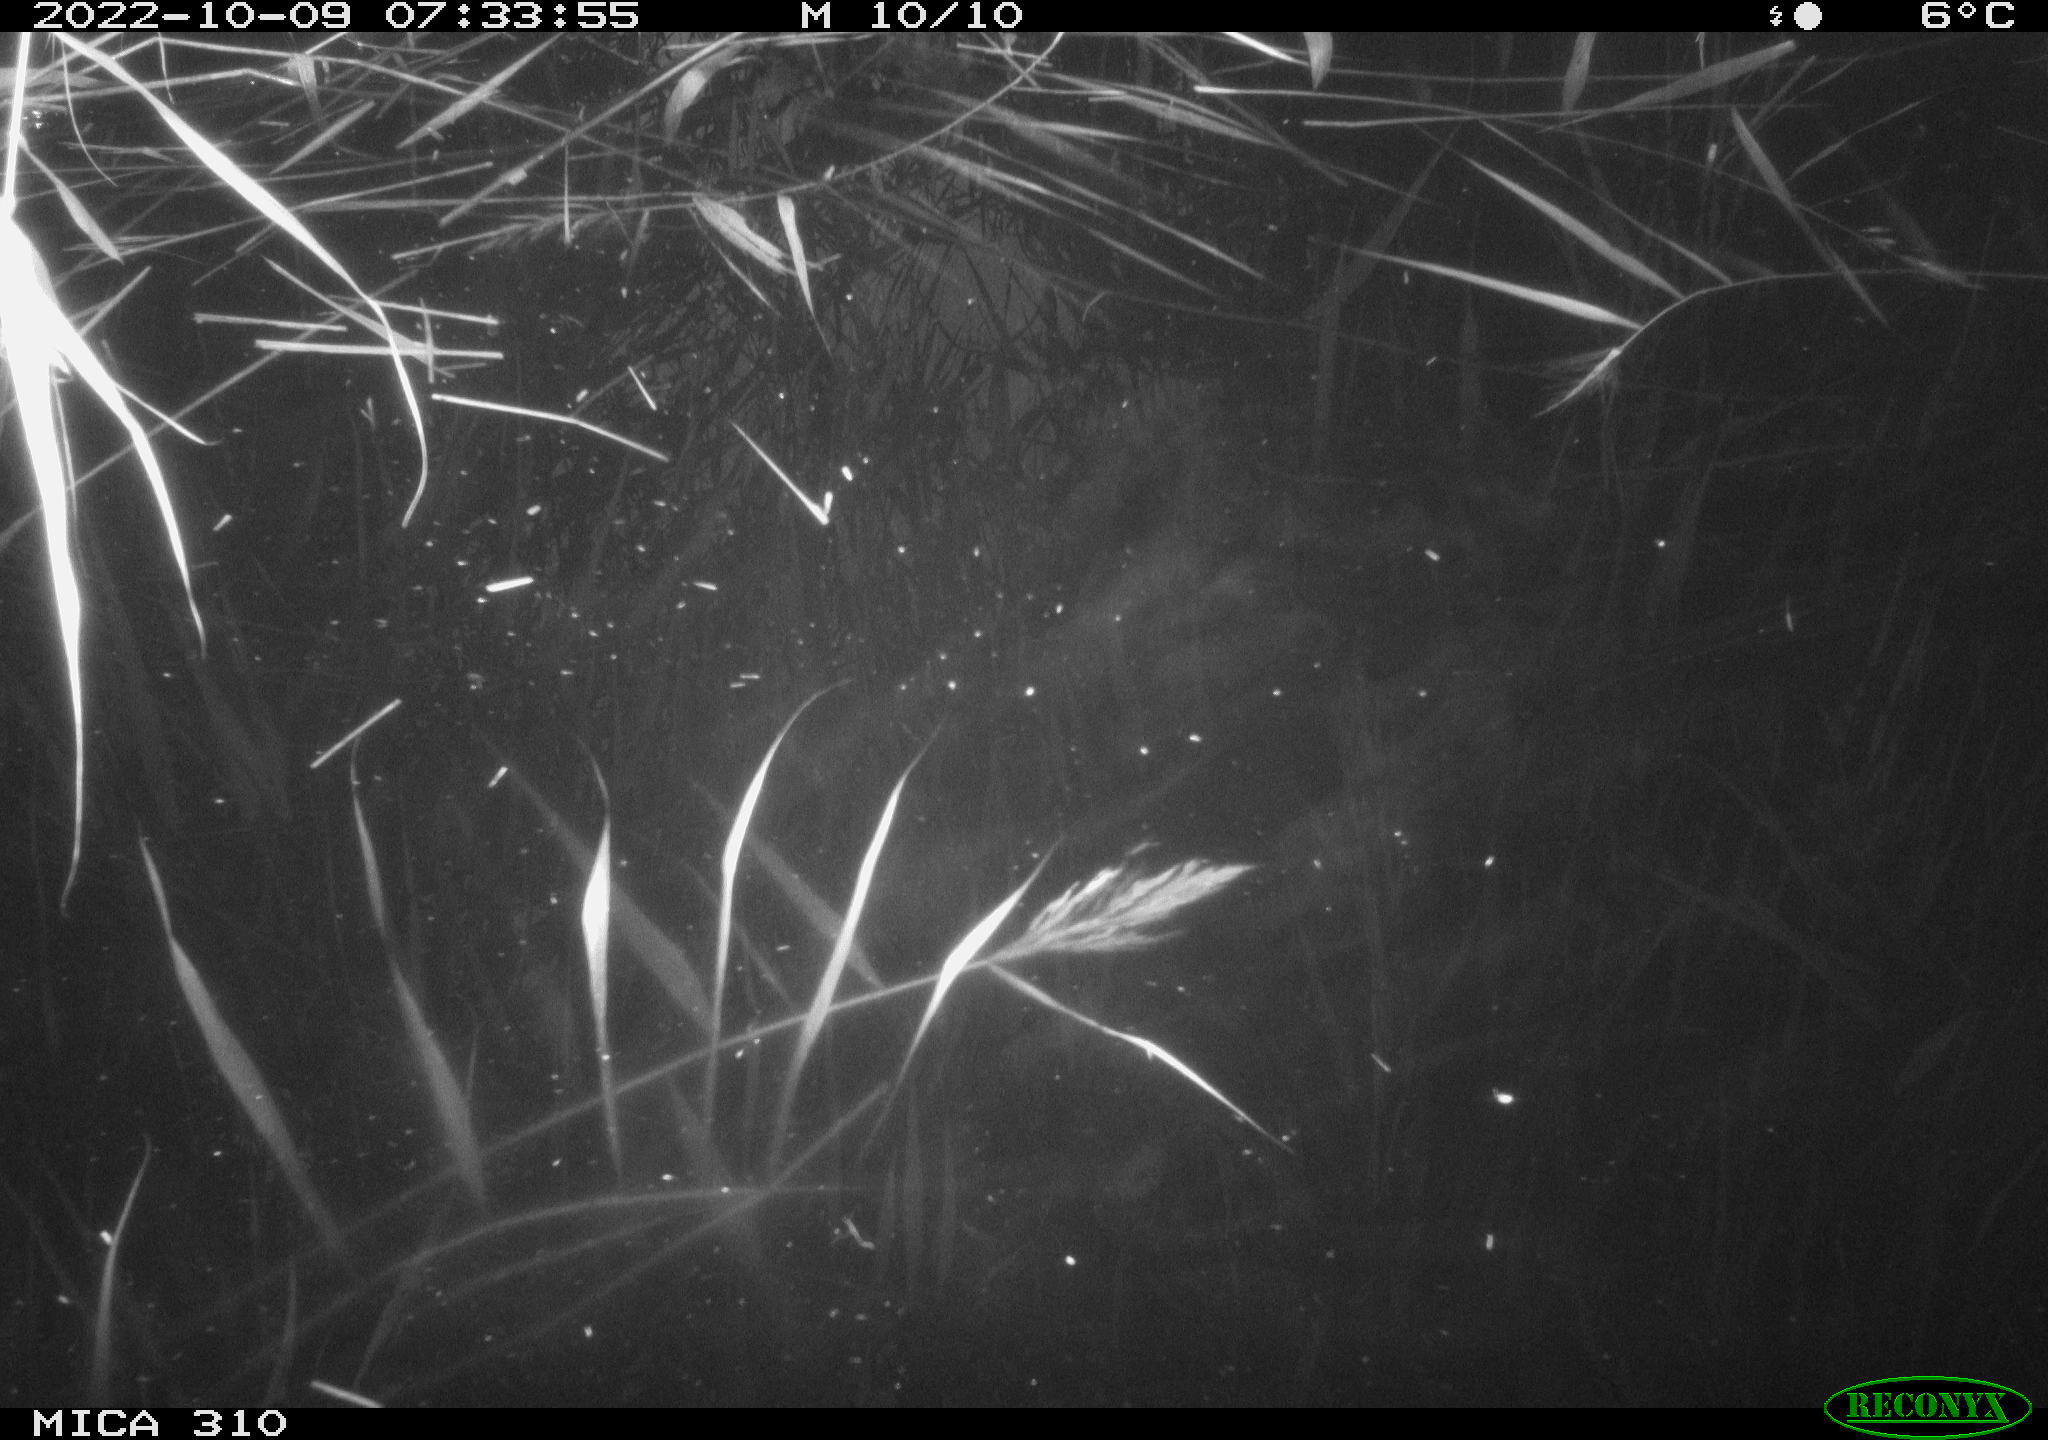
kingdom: Animalia
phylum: Chordata
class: Aves
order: Gruiformes
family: Rallidae
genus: Gallinula
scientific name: Gallinula chloropus
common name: Common moorhen
